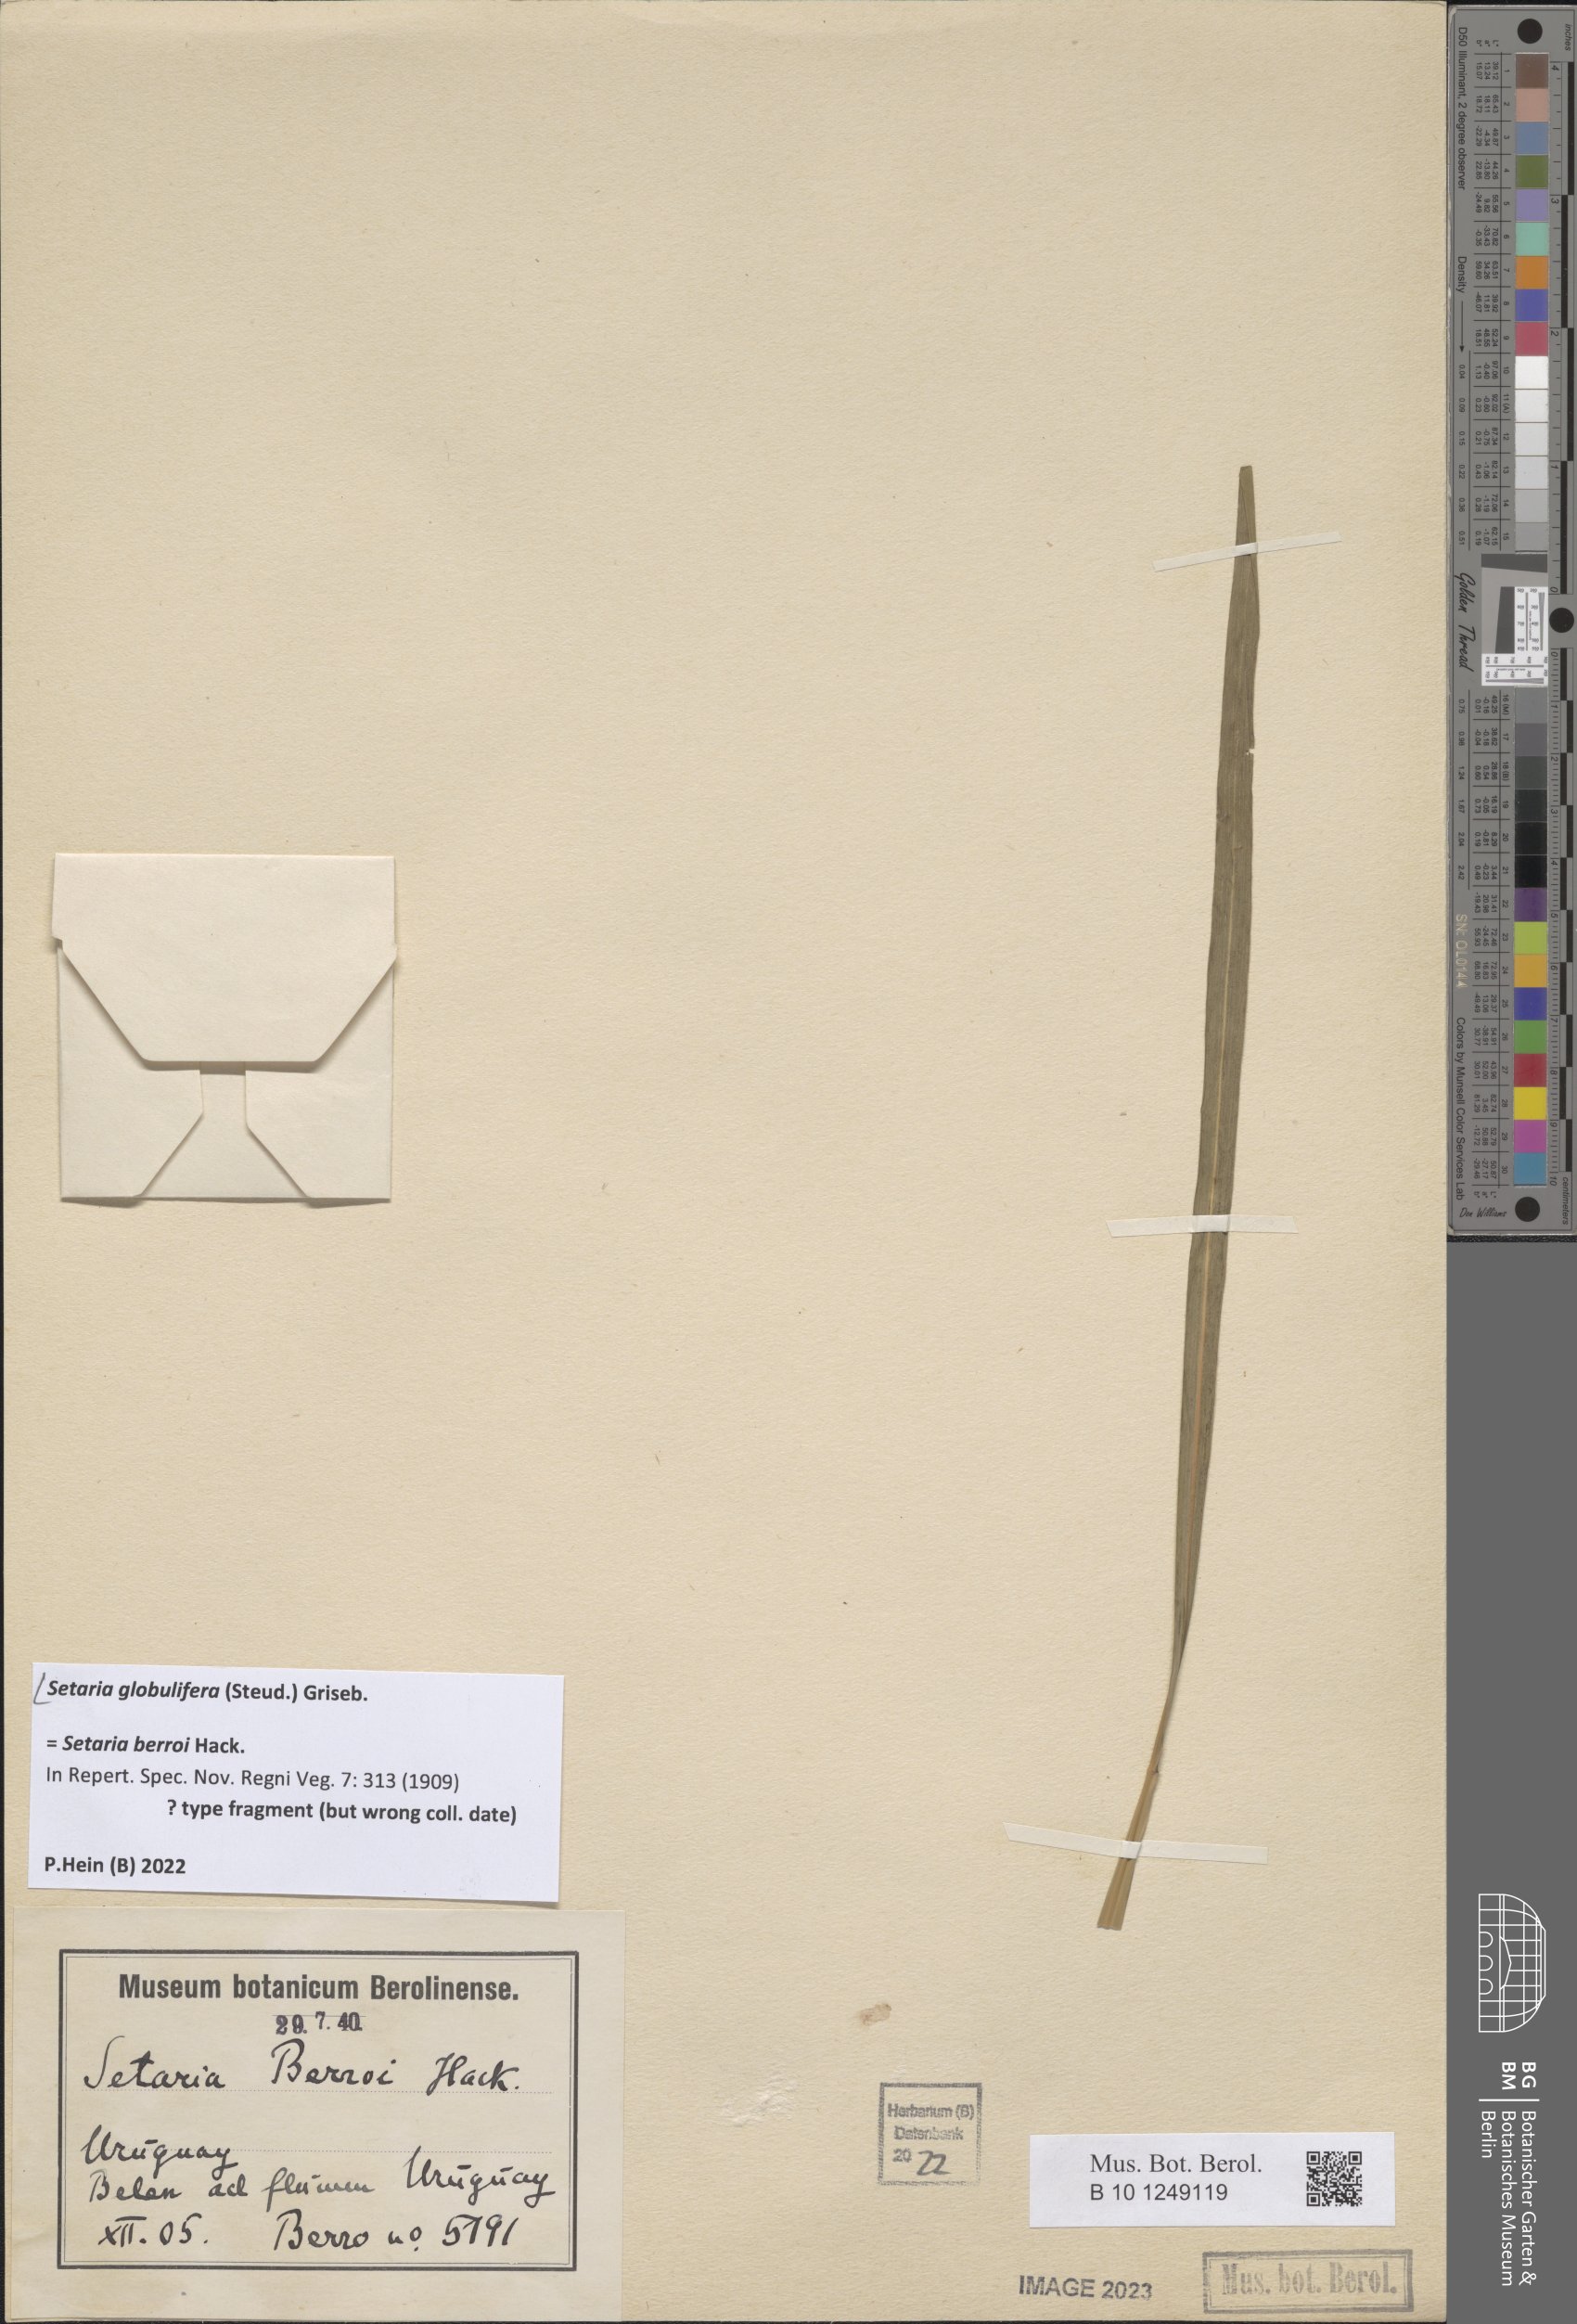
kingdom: Plantae
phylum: Tracheophyta
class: Liliopsida
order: Poales
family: Poaceae
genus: Setaria
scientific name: Setaria globulifera
